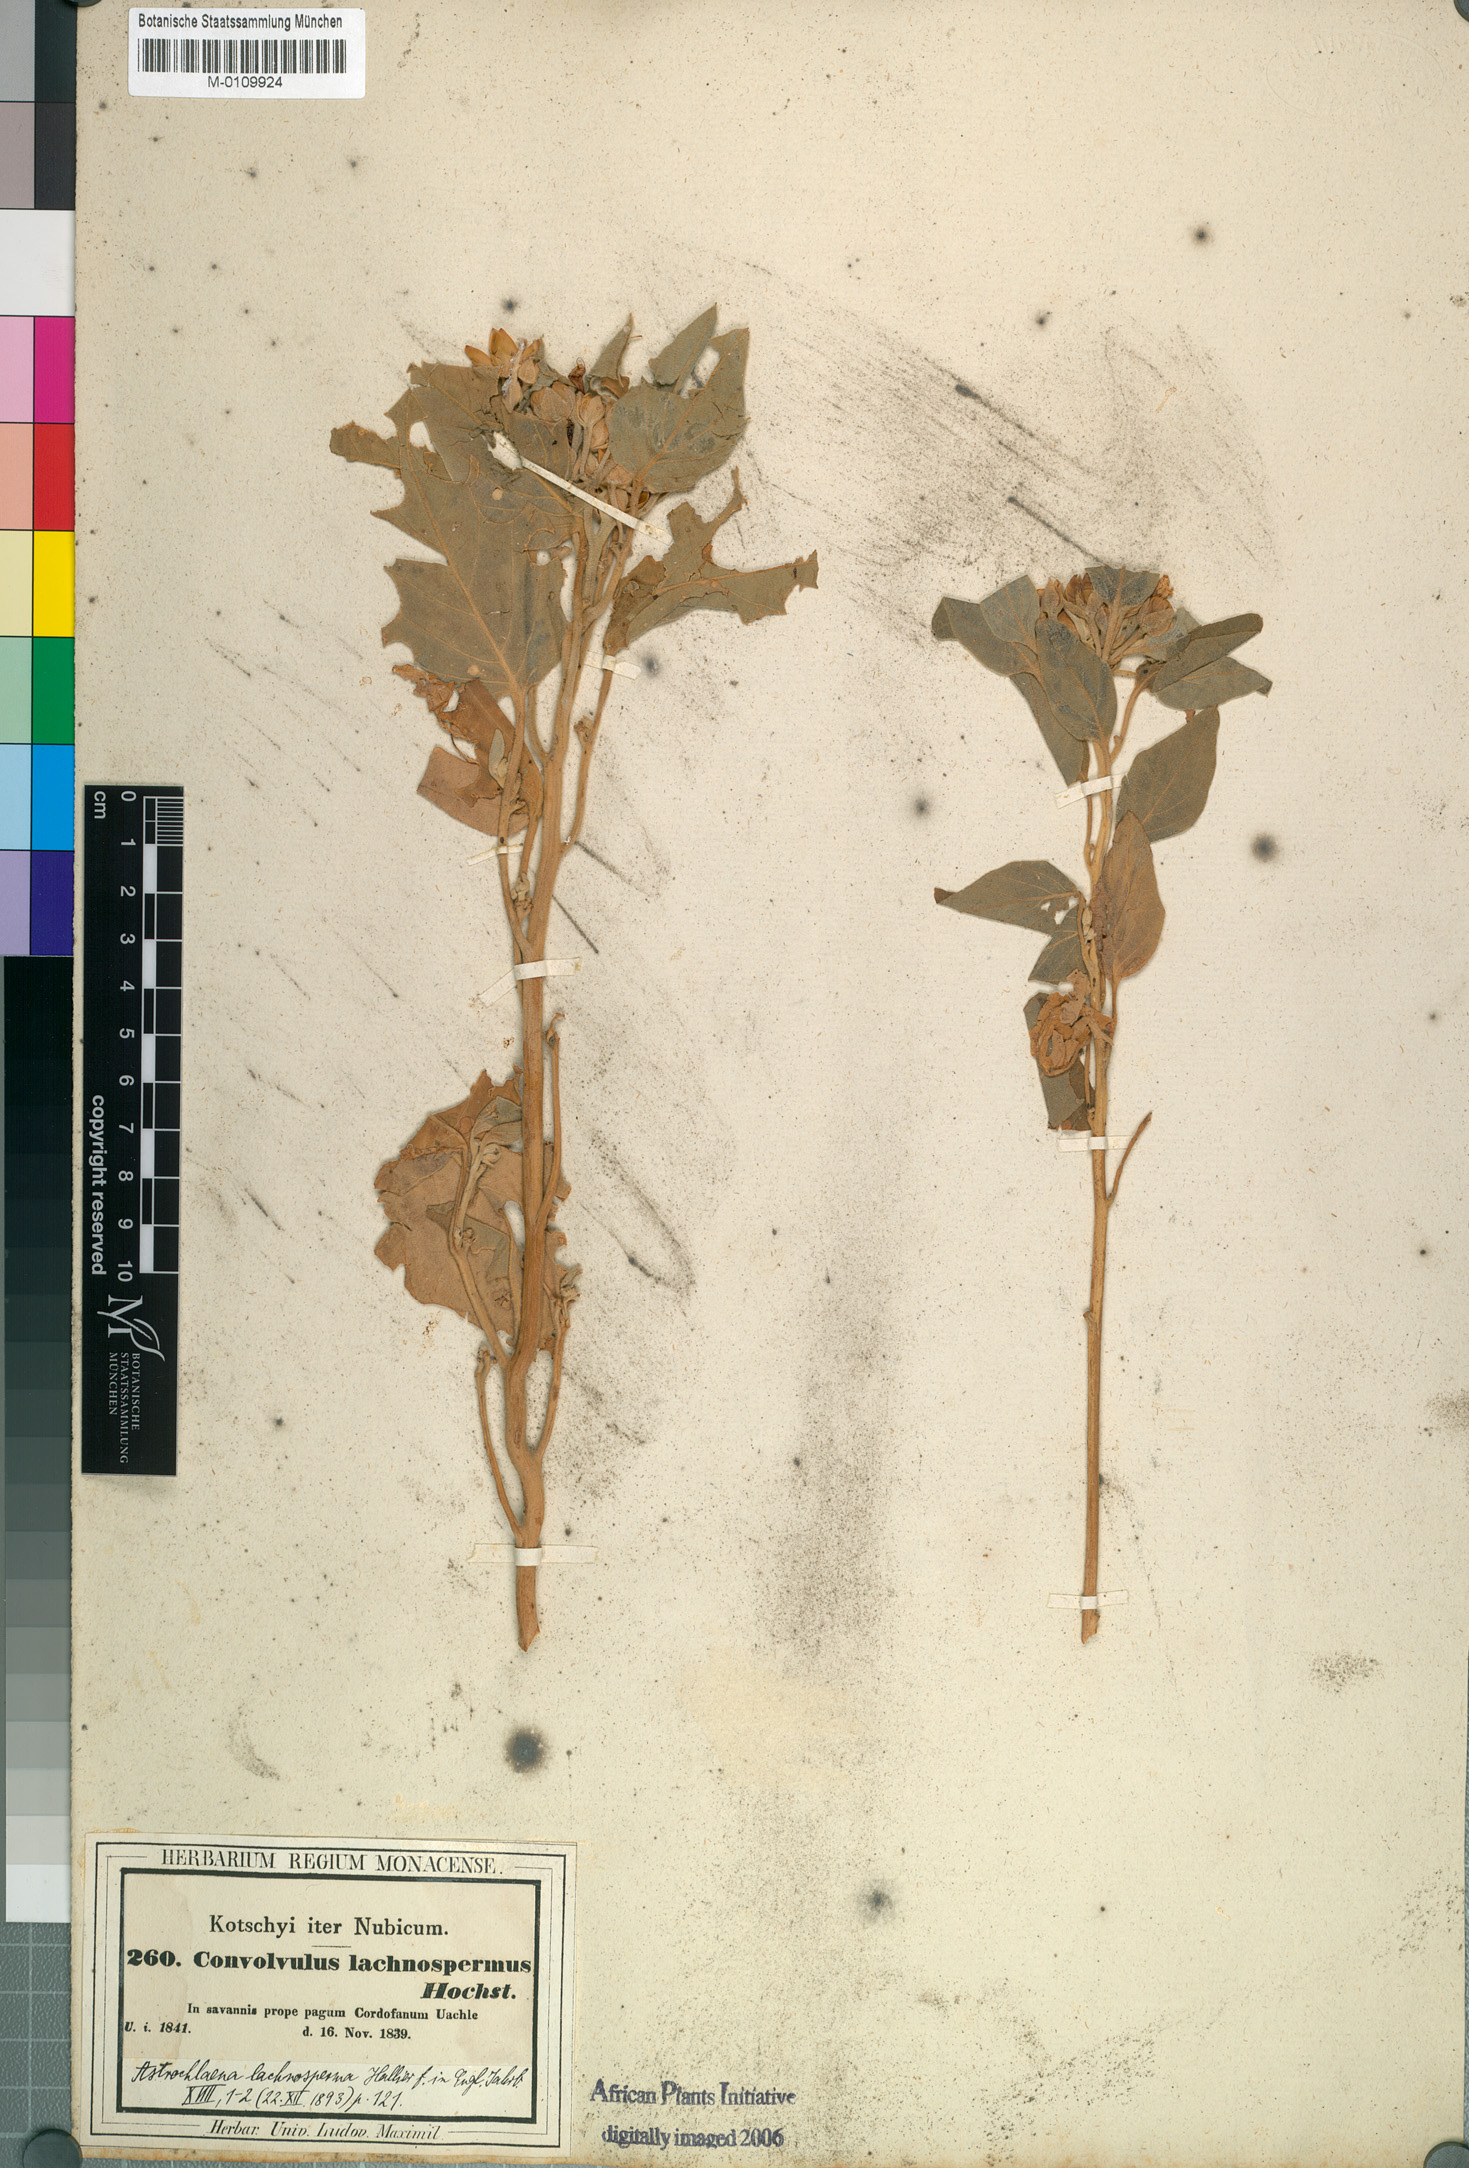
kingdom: Plantae
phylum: Tracheophyta
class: Magnoliopsida
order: Solanales
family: Convolvulaceae
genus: Astripomoea
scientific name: Astripomoea lachnosperma
